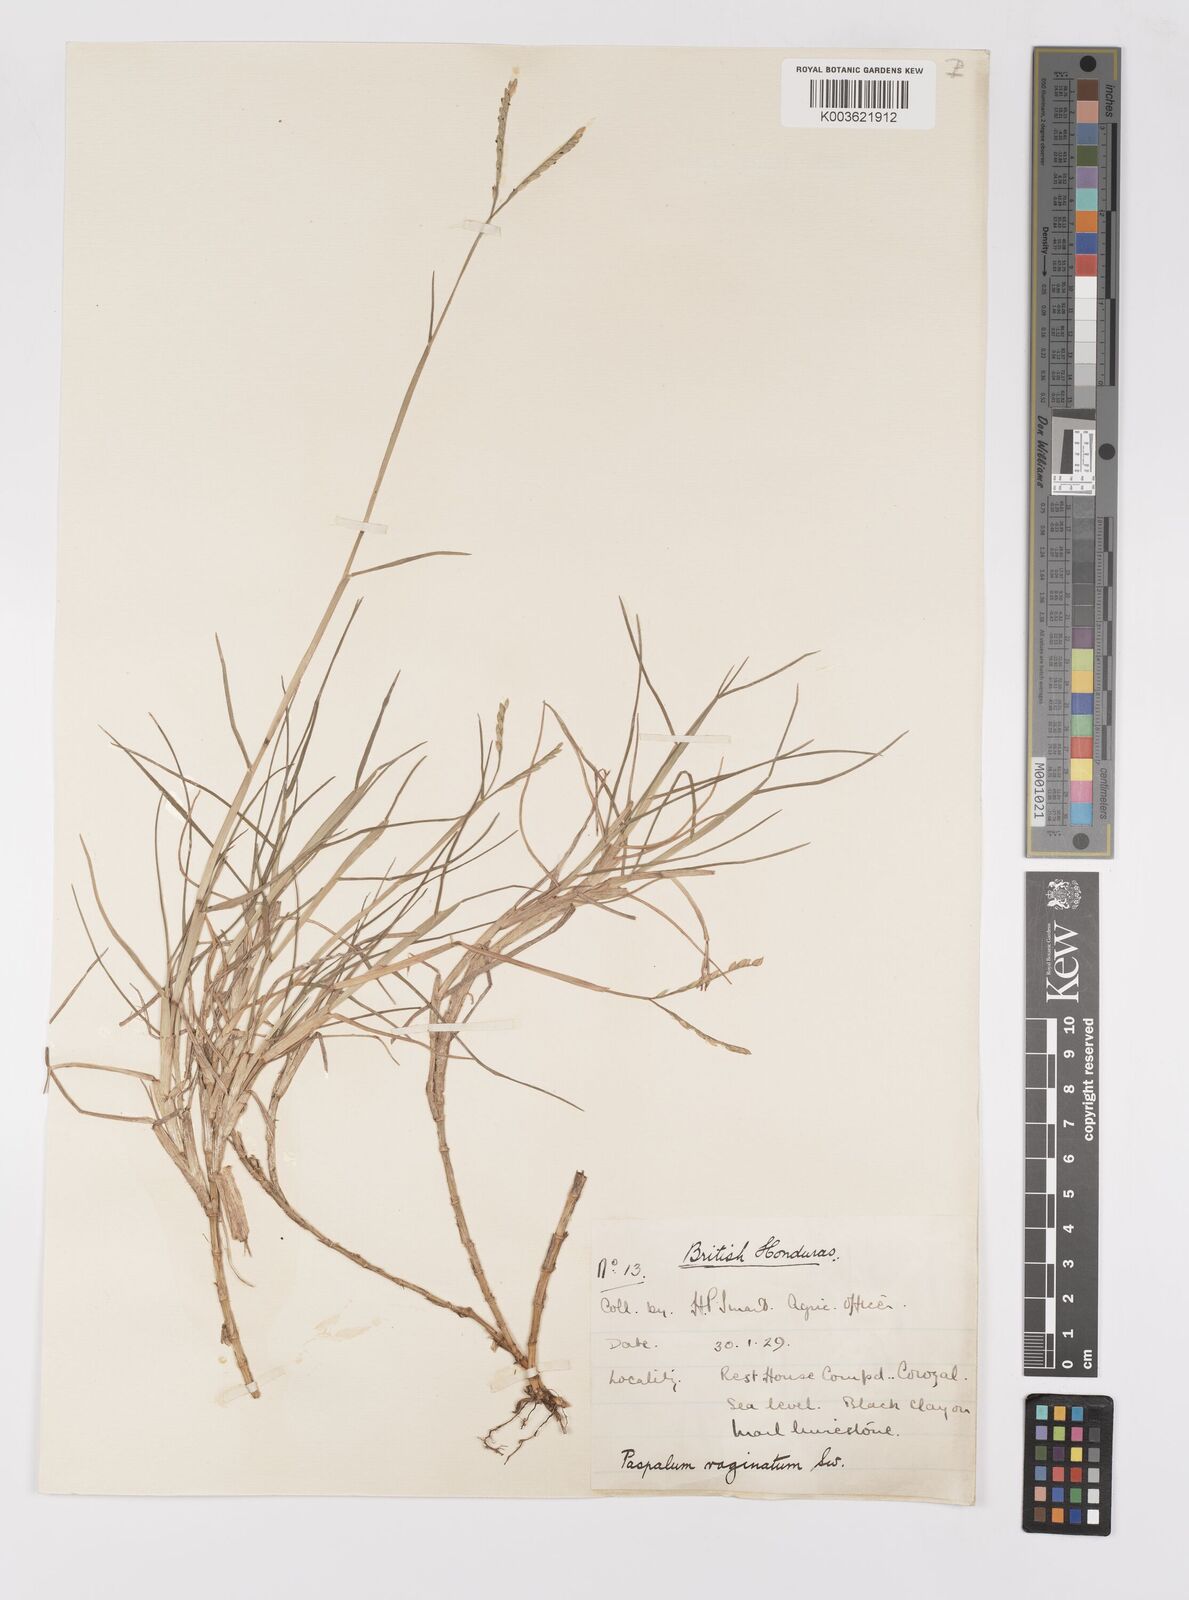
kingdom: Plantae
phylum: Tracheophyta
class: Liliopsida
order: Poales
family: Poaceae
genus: Paspalum
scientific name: Paspalum vaginatum
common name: Seashore paspalum
